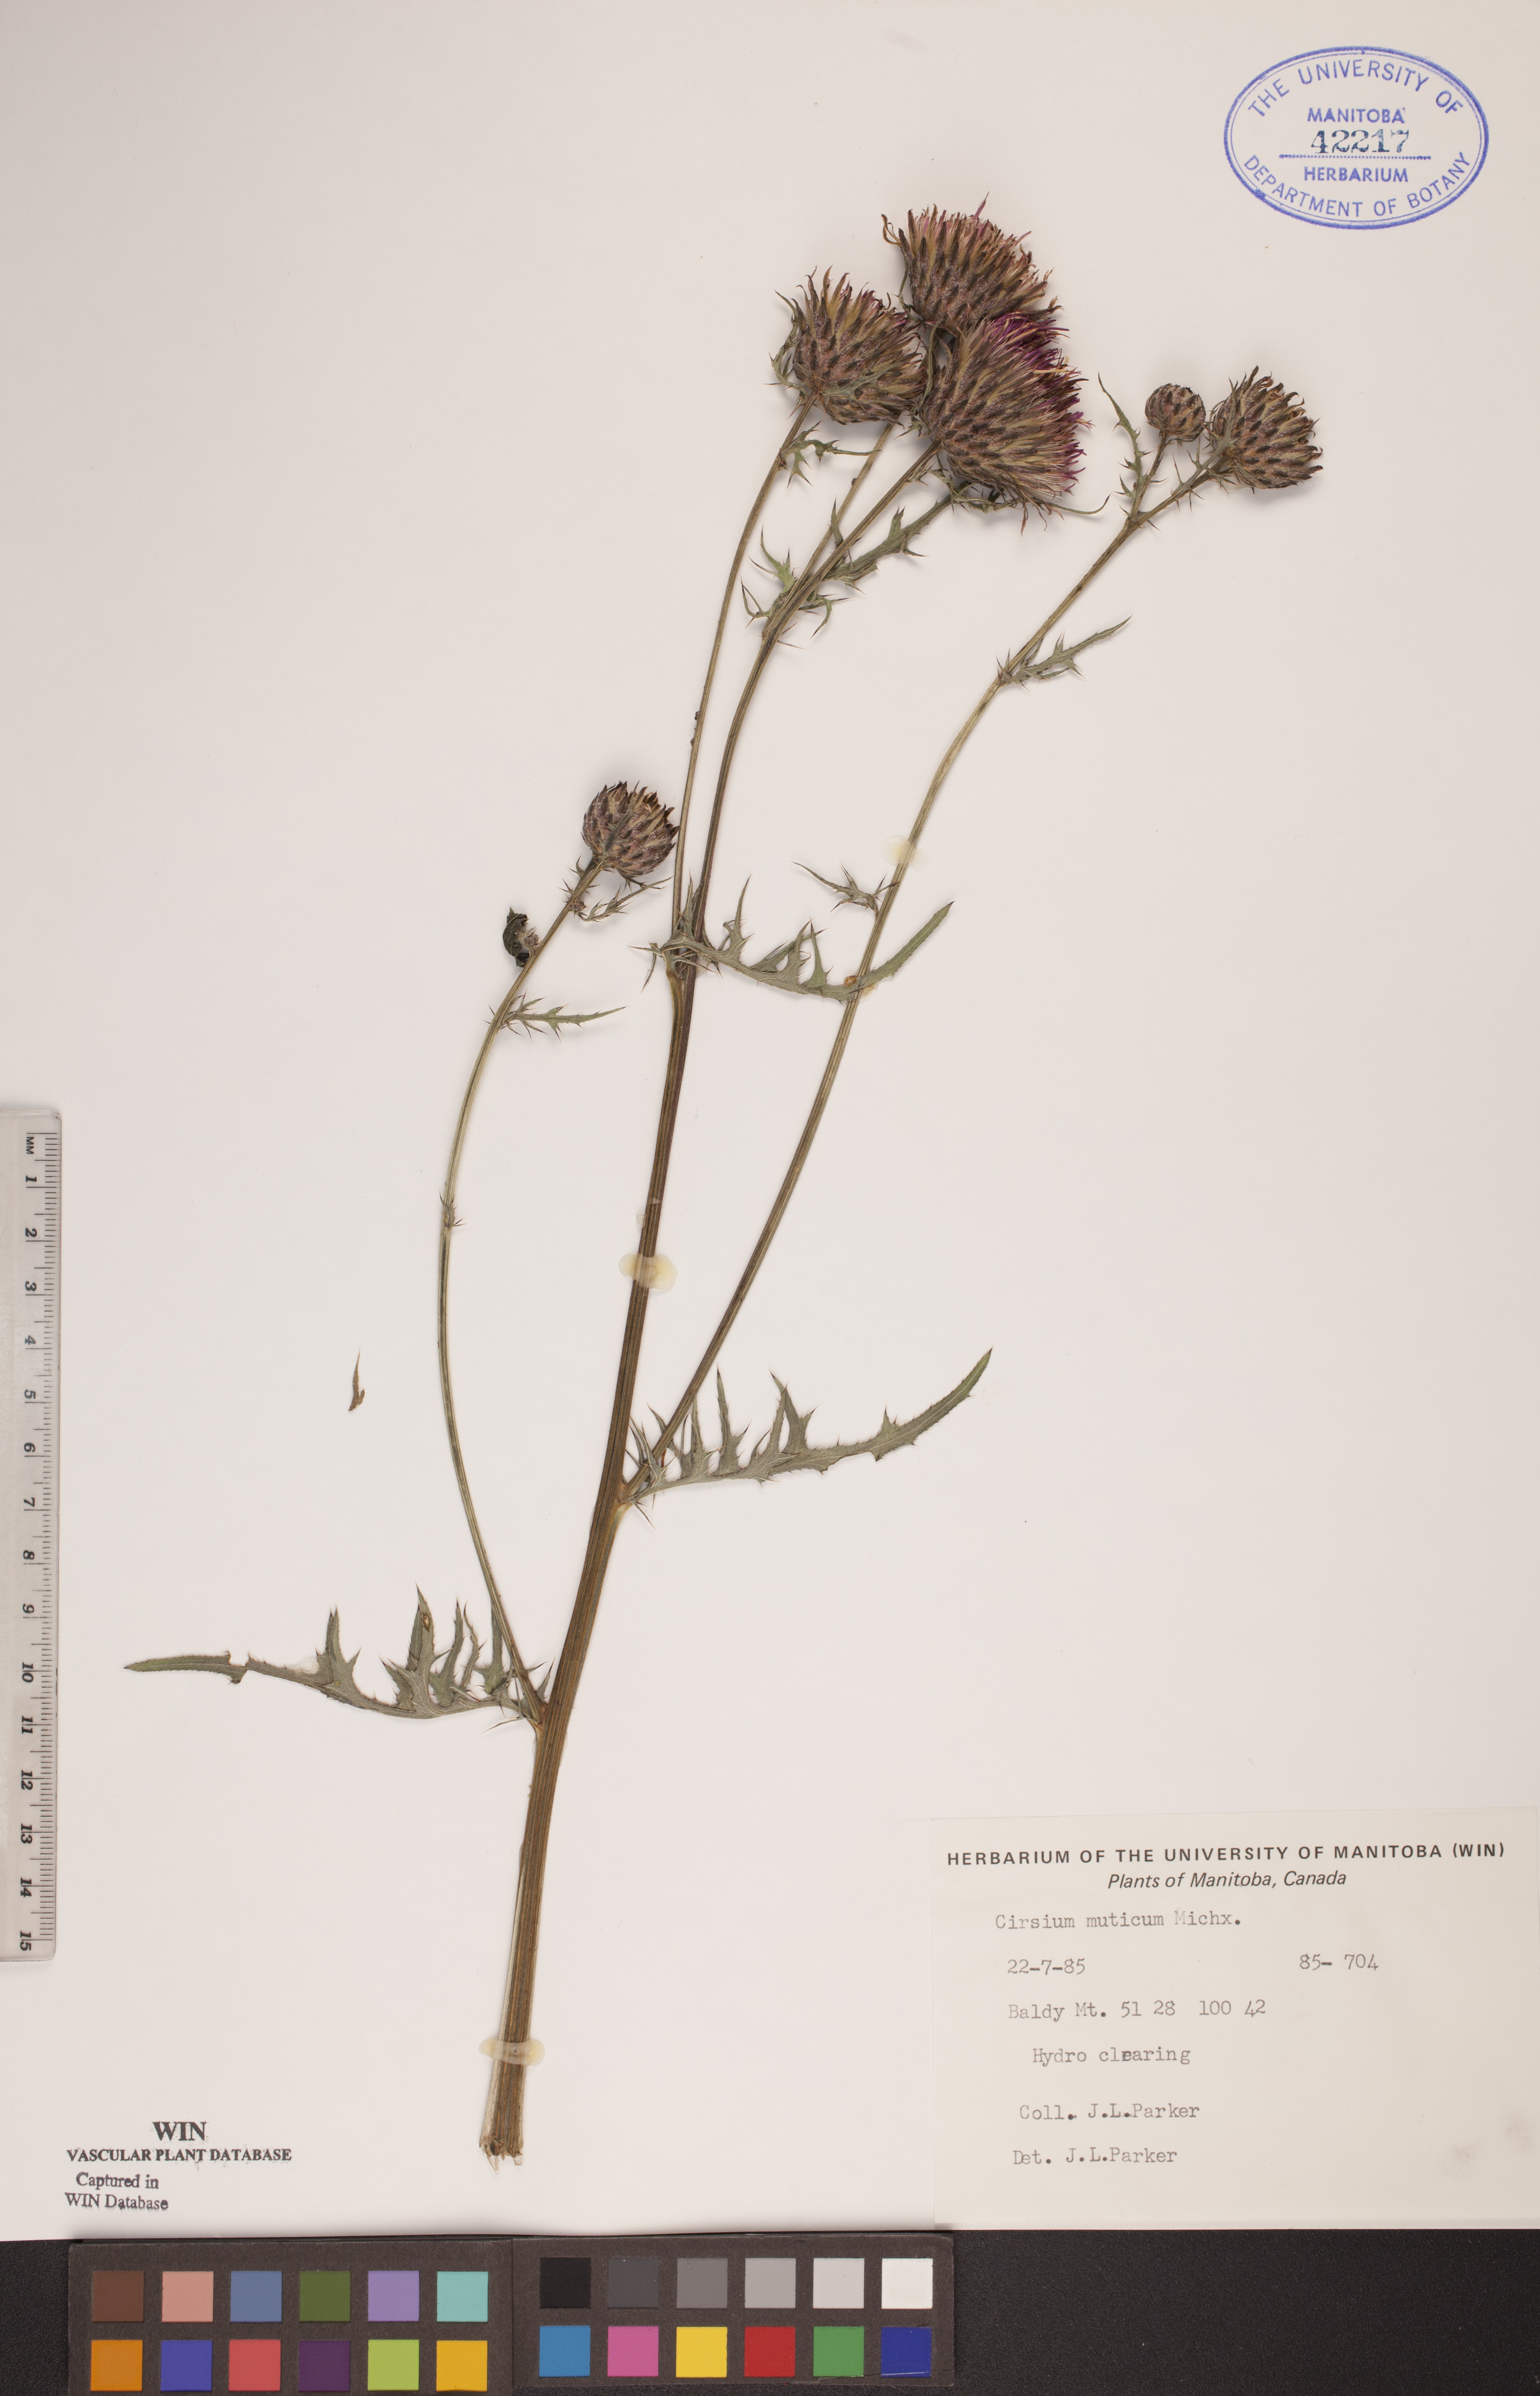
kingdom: Plantae
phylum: Tracheophyta
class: Magnoliopsida
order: Asterales
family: Asteraceae
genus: Cirsium
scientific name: Cirsium muticum
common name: Dunce-nettle
